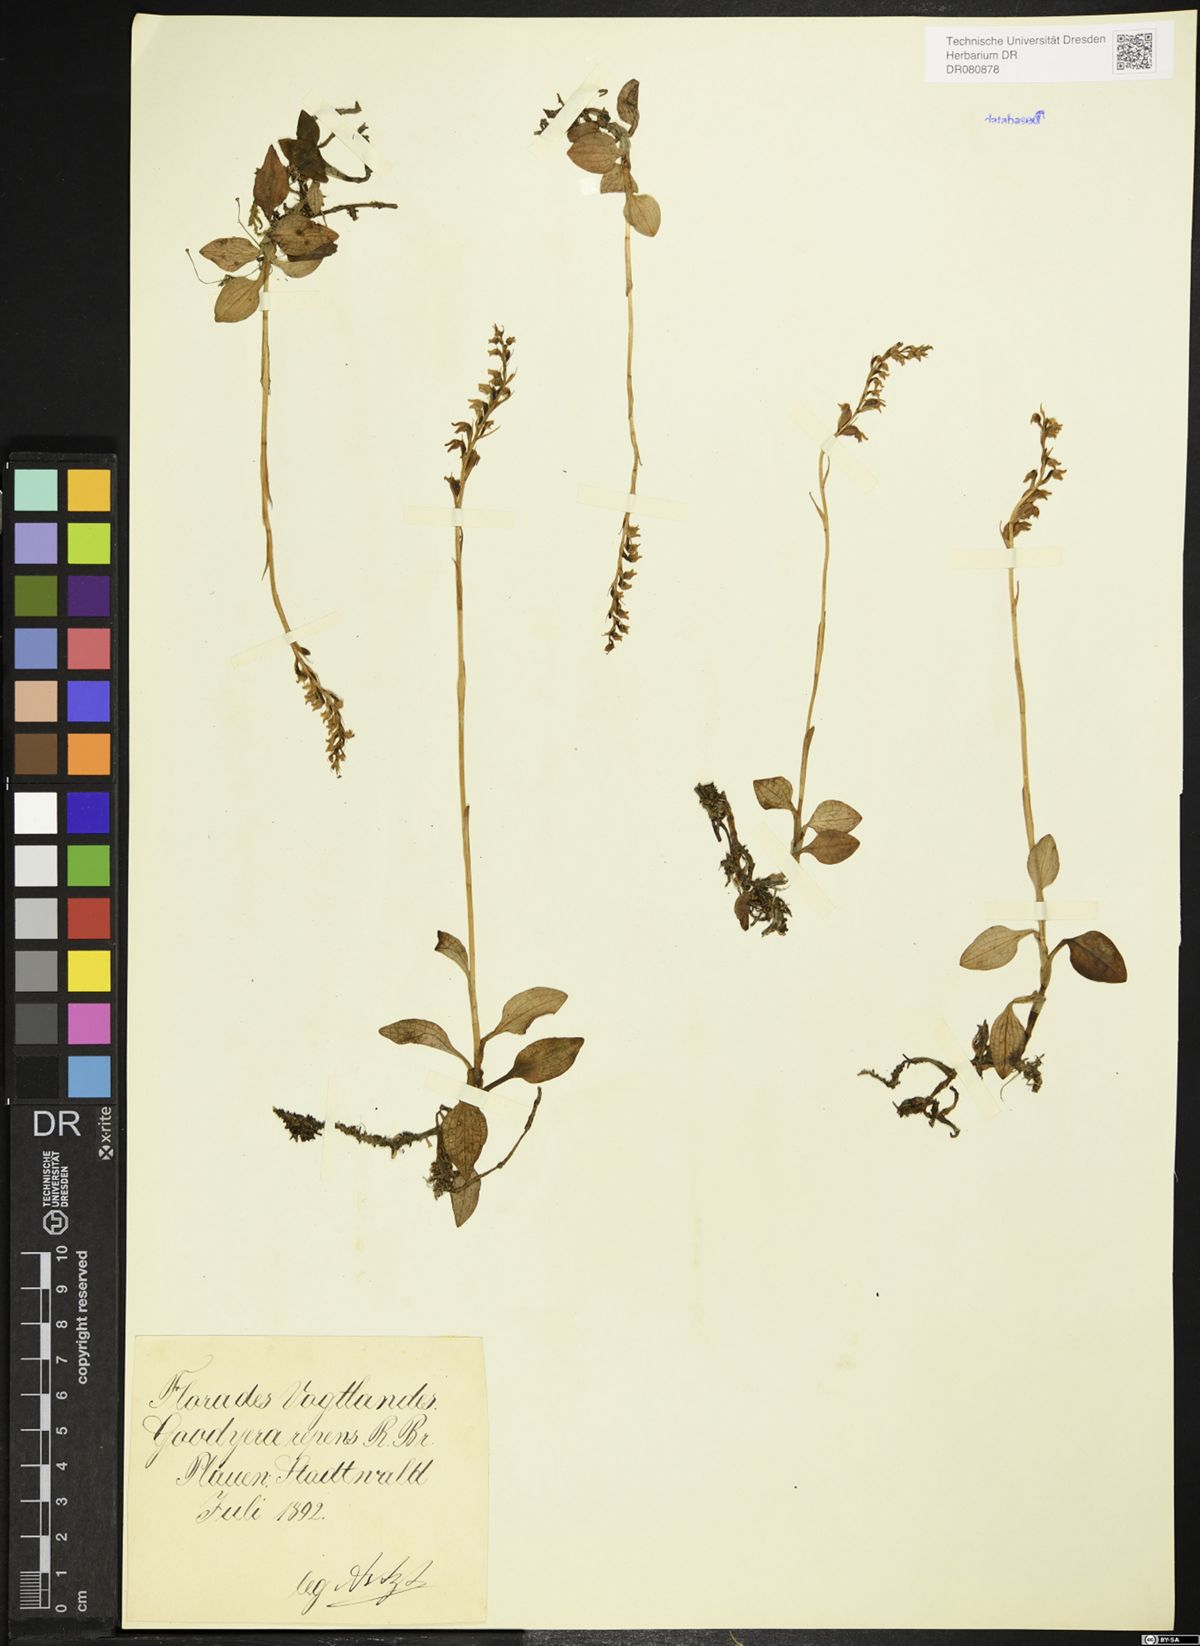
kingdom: Plantae
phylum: Tracheophyta
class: Liliopsida
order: Asparagales
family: Orchidaceae
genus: Goodyera
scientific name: Goodyera repens
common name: Creeping lady's-tresses
